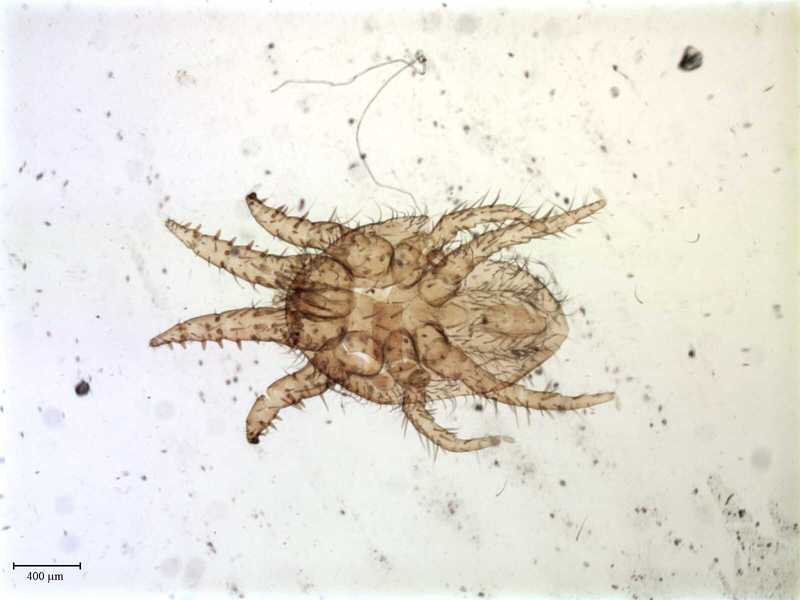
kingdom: Animalia
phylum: Arthropoda
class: Arachnida
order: Mesostigmata
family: Laelapidae
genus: Dinogamasus
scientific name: Dinogamasus
